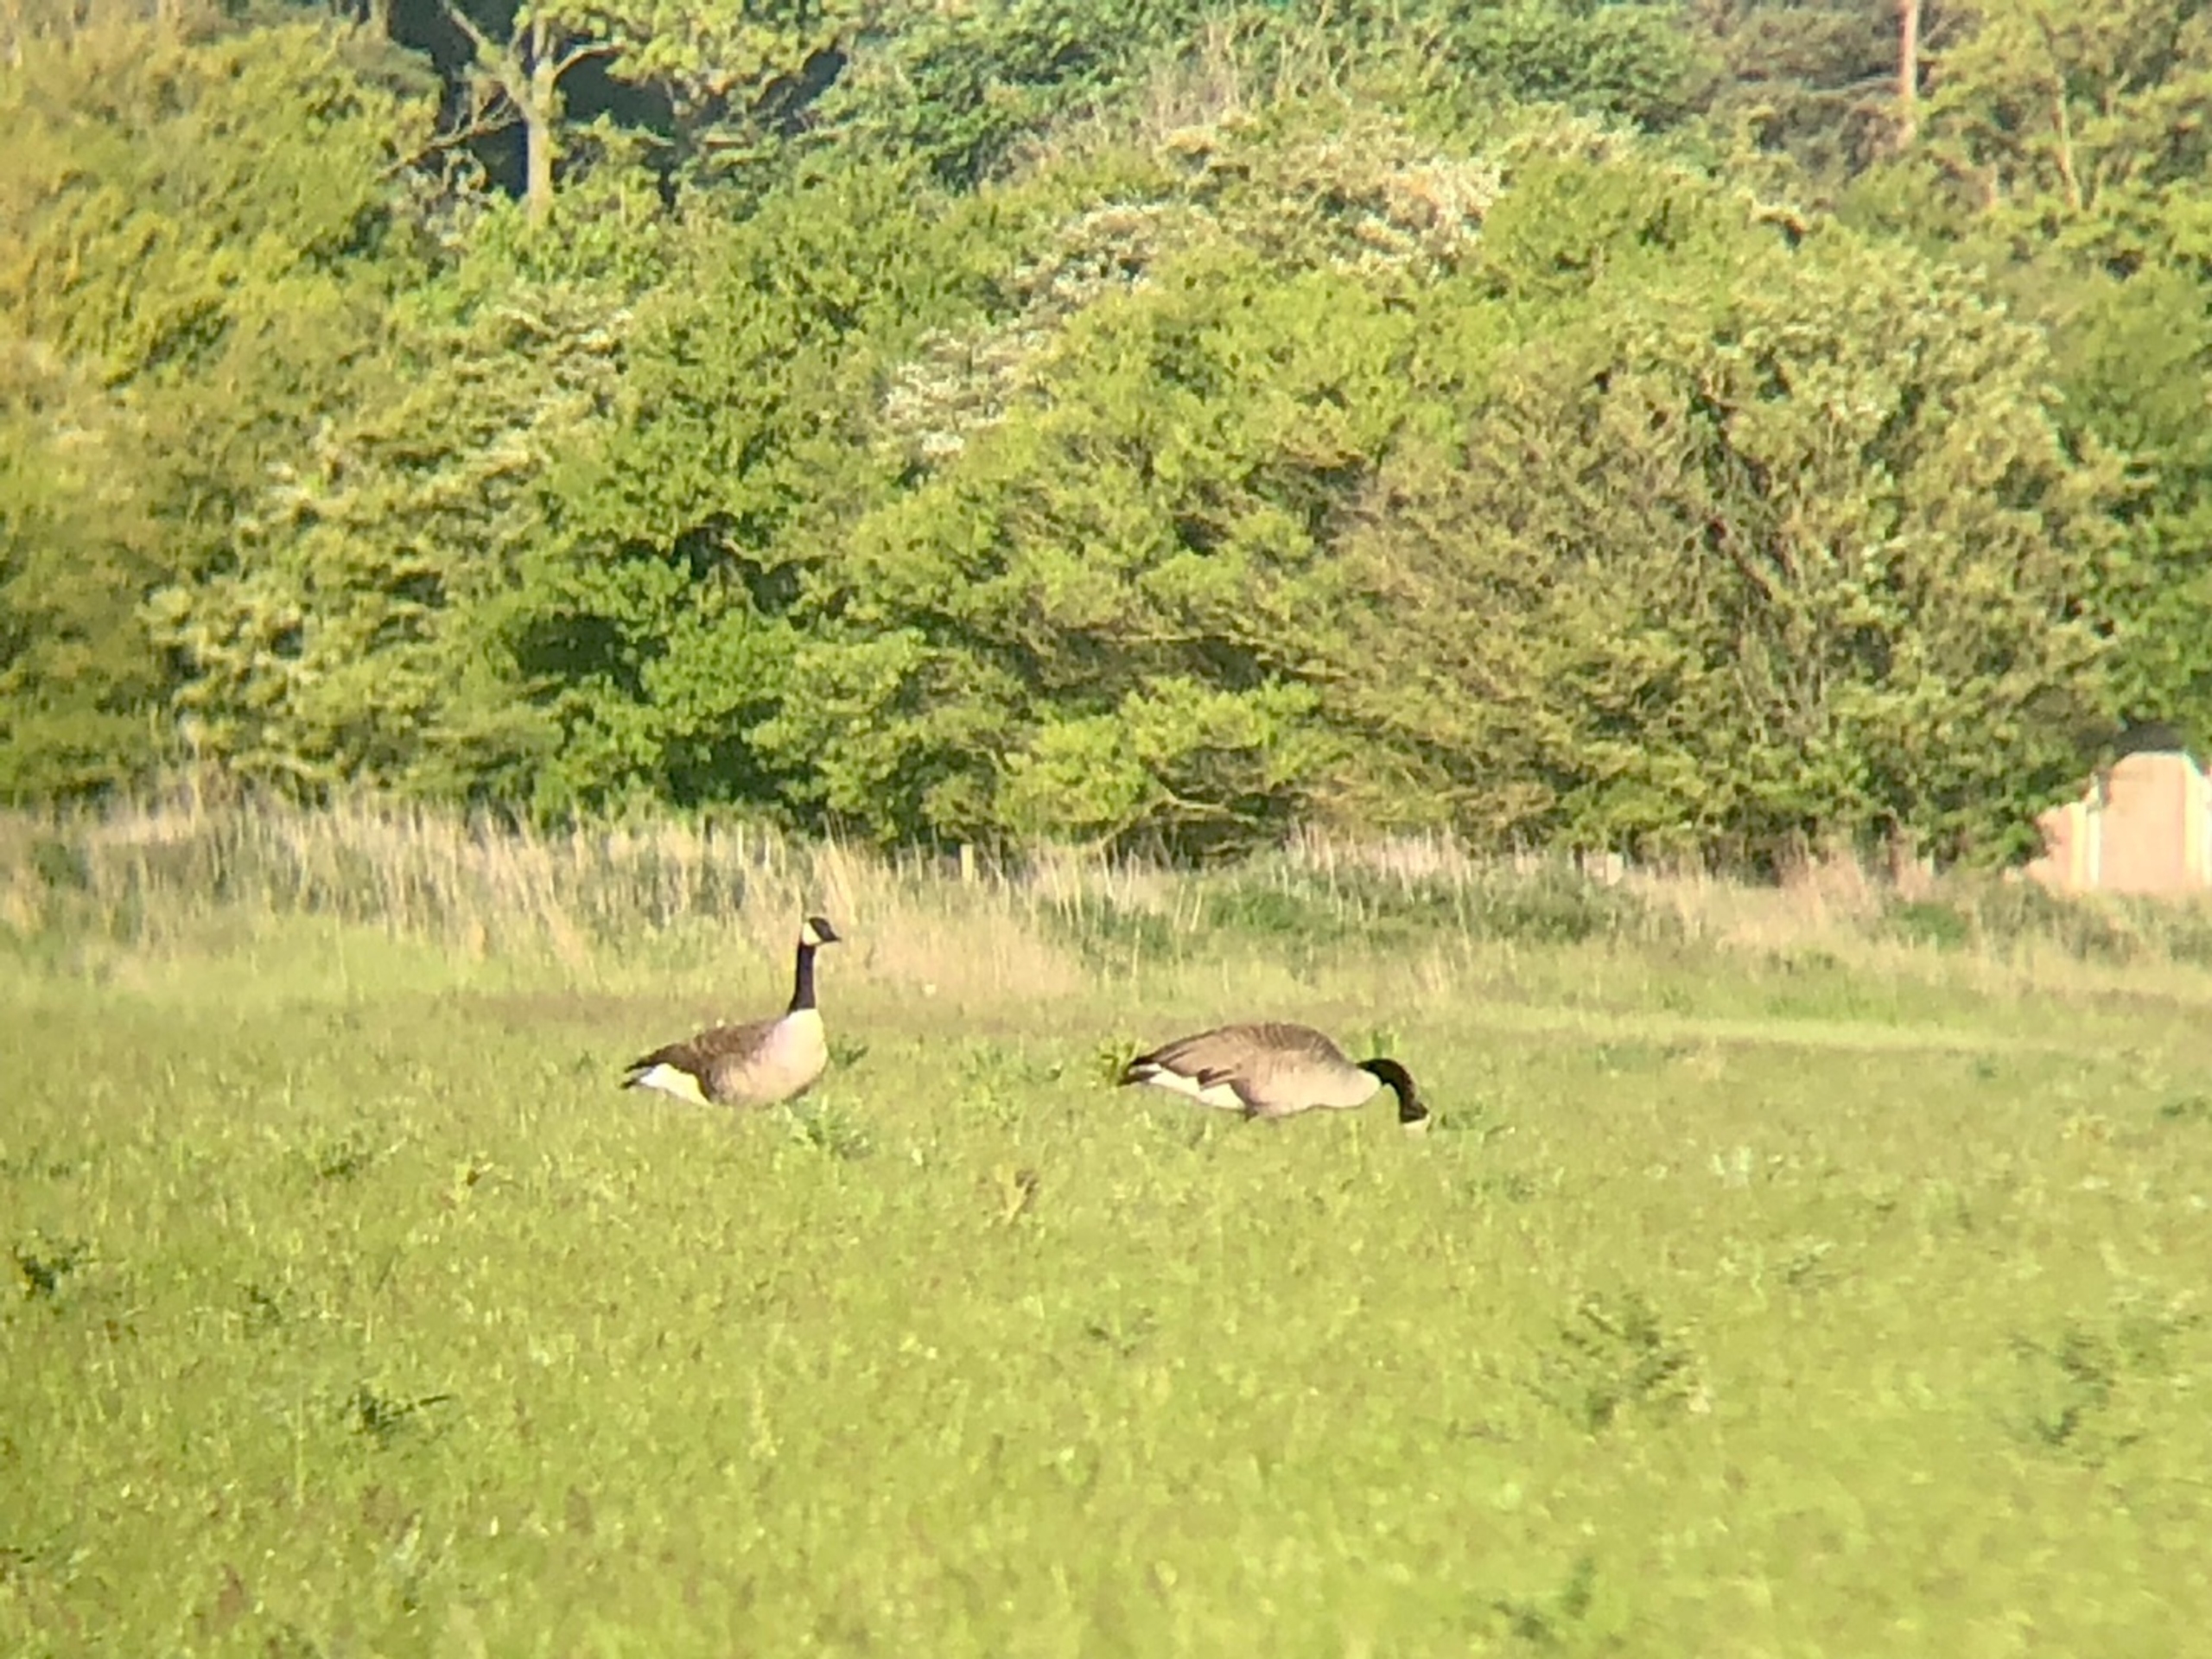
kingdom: Animalia
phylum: Chordata
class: Aves
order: Anseriformes
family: Anatidae
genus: Branta
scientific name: Branta canadensis
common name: Canadagås
